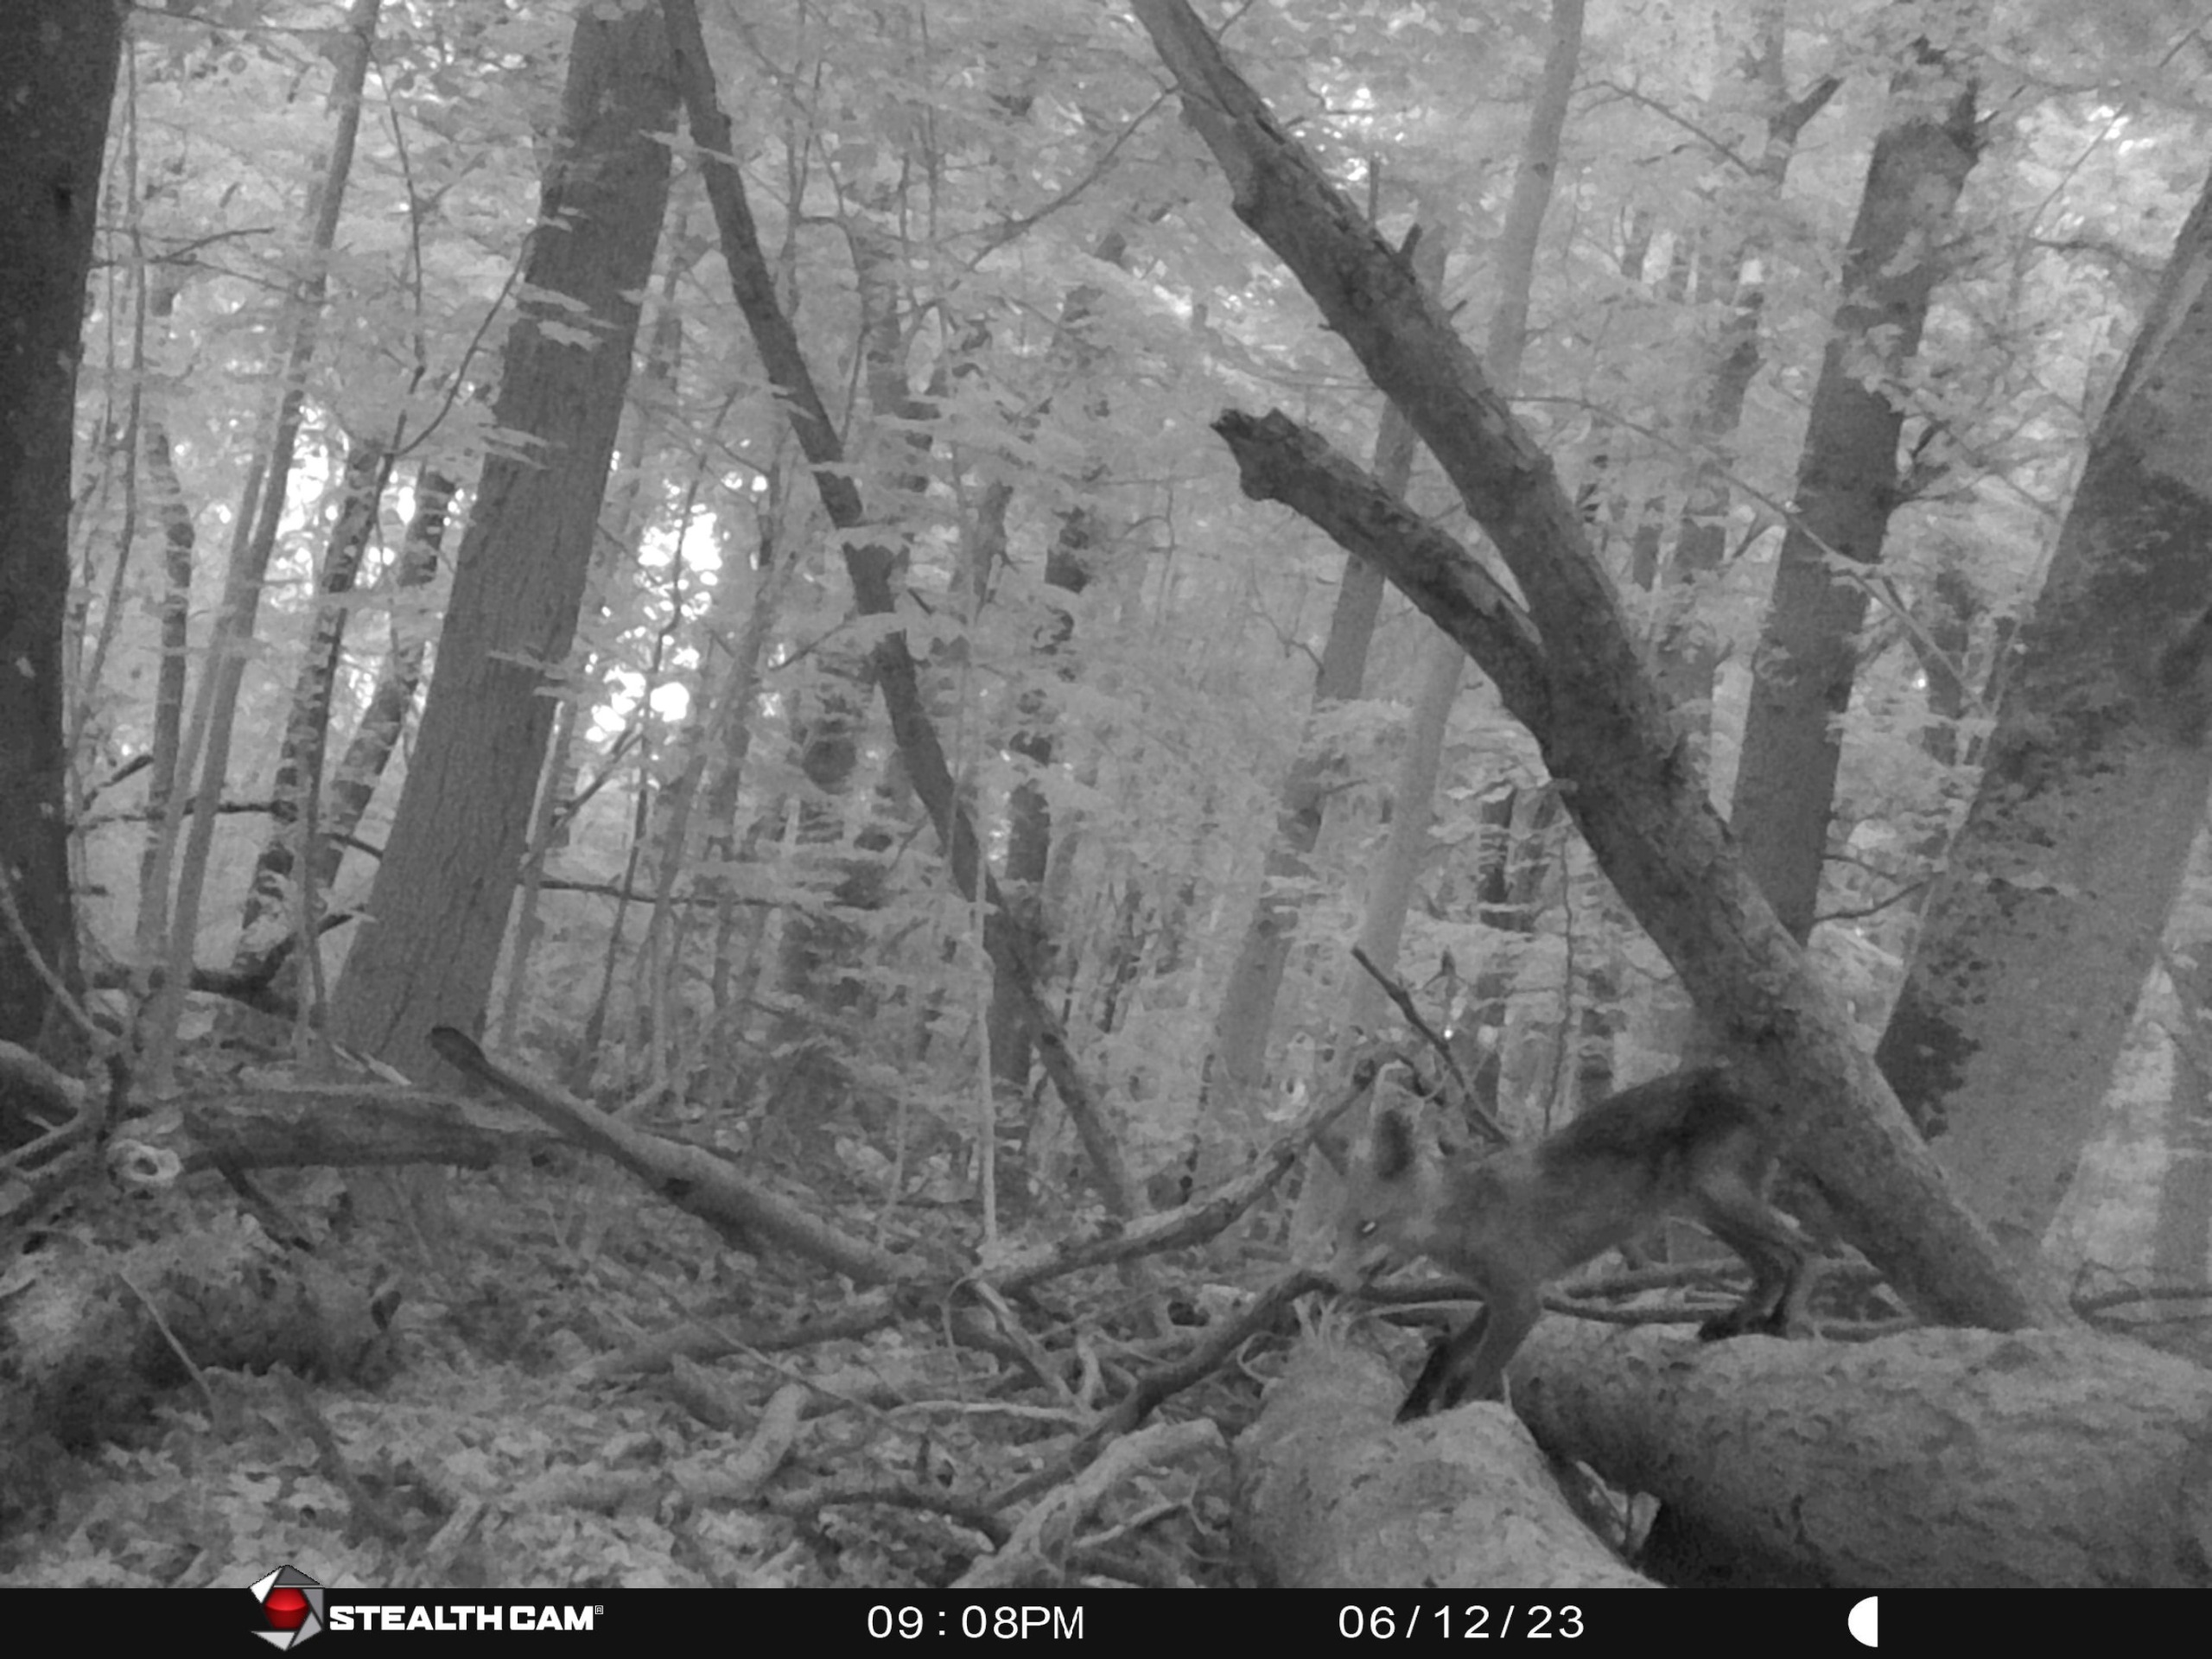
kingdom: Animalia
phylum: Chordata
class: Mammalia
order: Carnivora
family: Canidae
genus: Vulpes
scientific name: Vulpes vulpes
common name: Ræv
